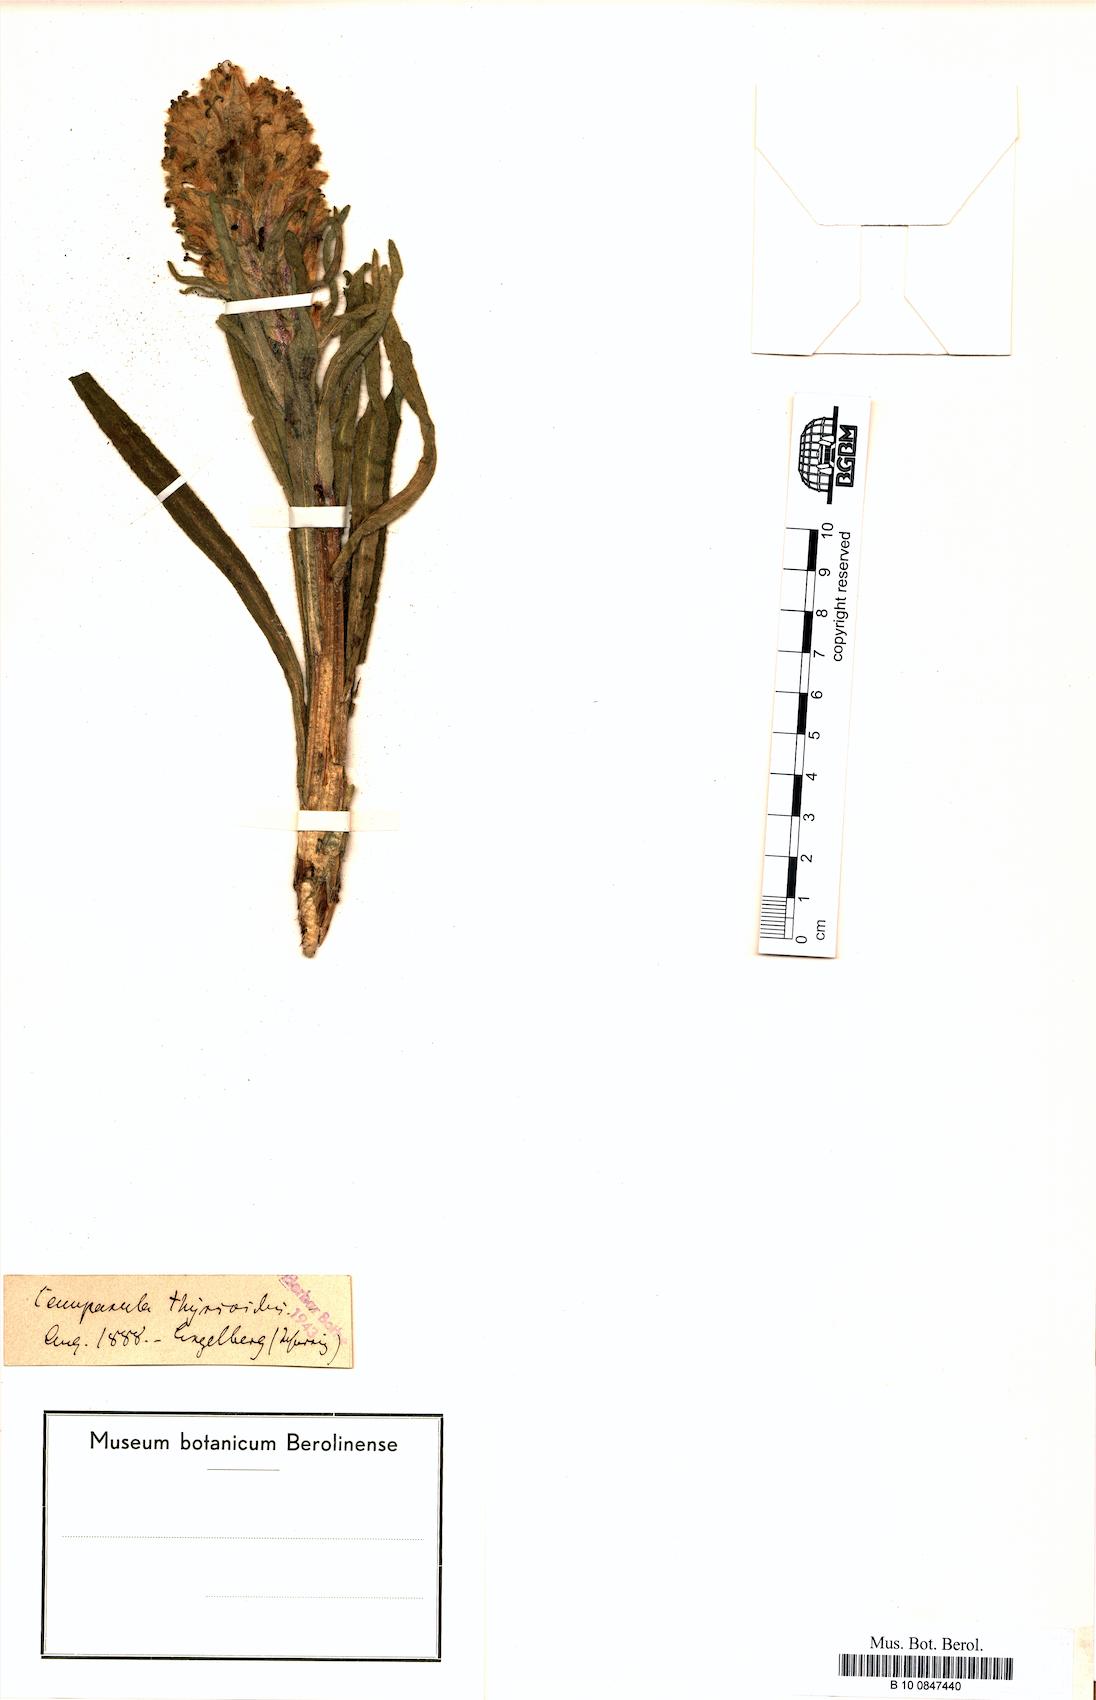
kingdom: Plantae
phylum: Tracheophyta
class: Magnoliopsida
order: Asterales
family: Campanulaceae
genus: Campanula
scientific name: Campanula thyrsoides
